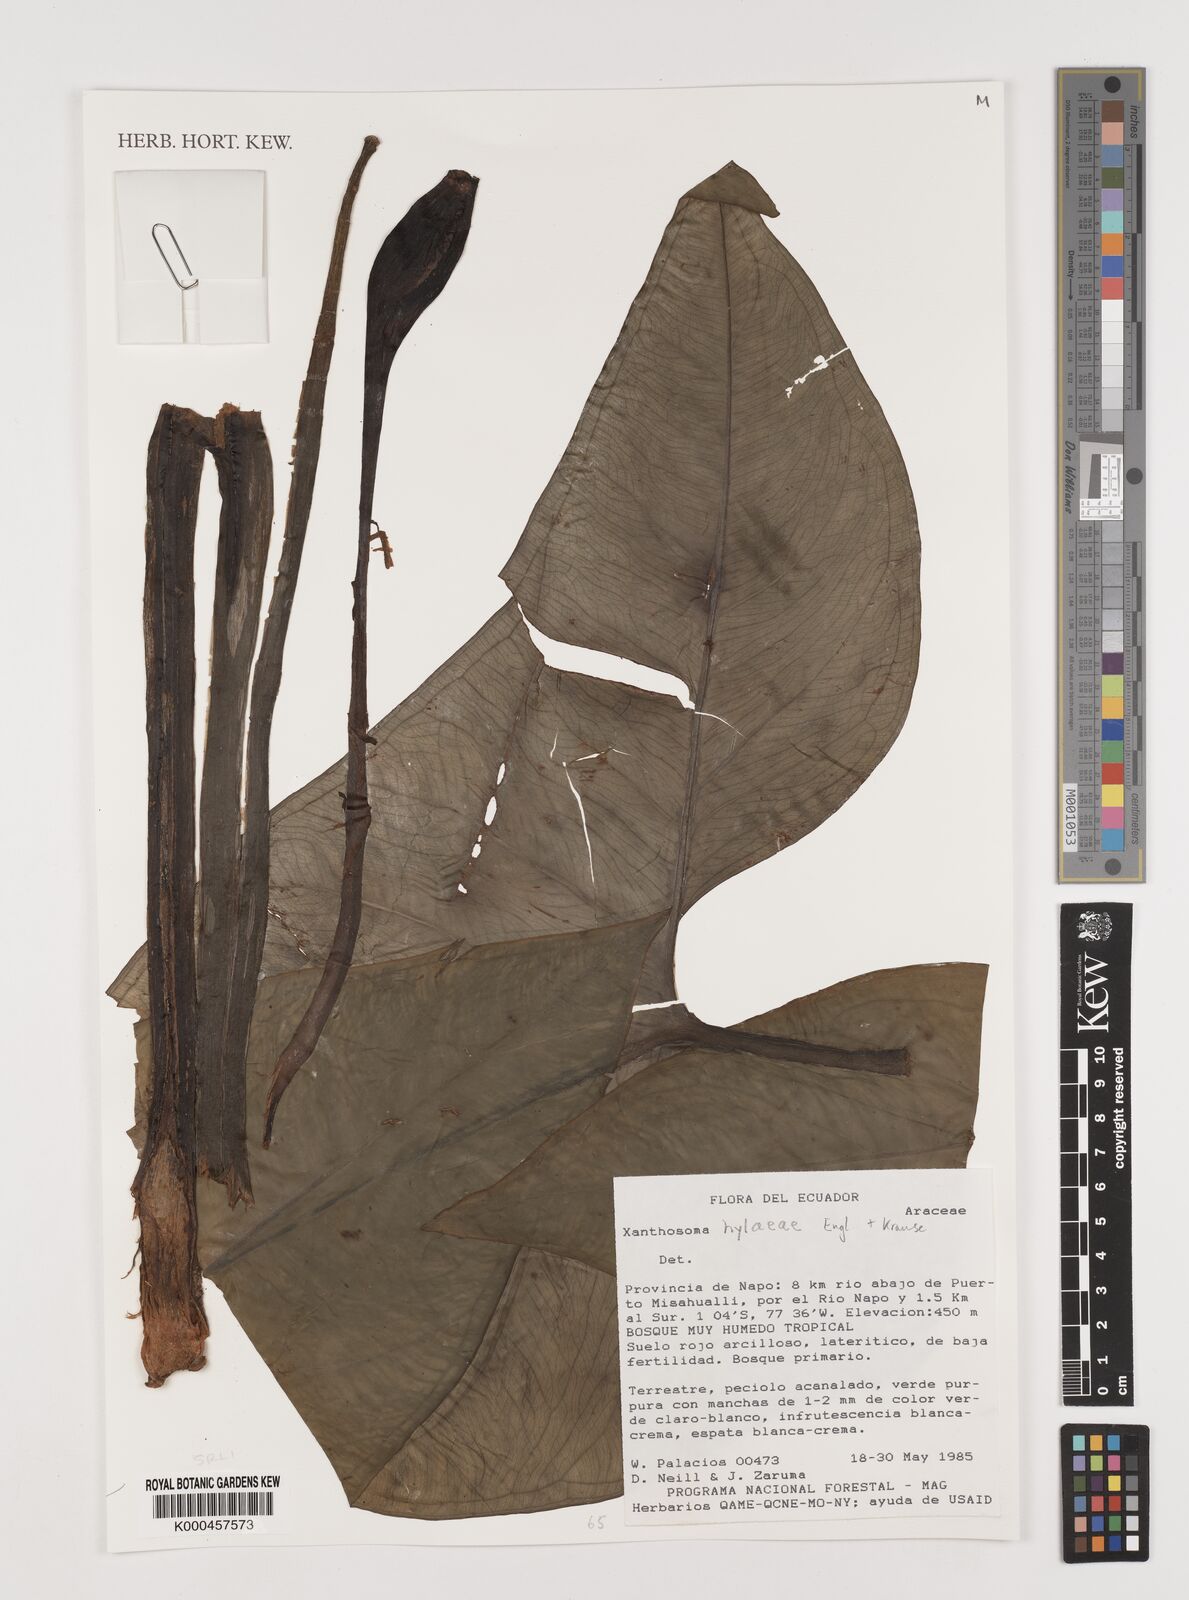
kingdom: Plantae
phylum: Tracheophyta
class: Liliopsida
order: Alismatales
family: Araceae
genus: Xanthosoma
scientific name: Xanthosoma hylaeae
